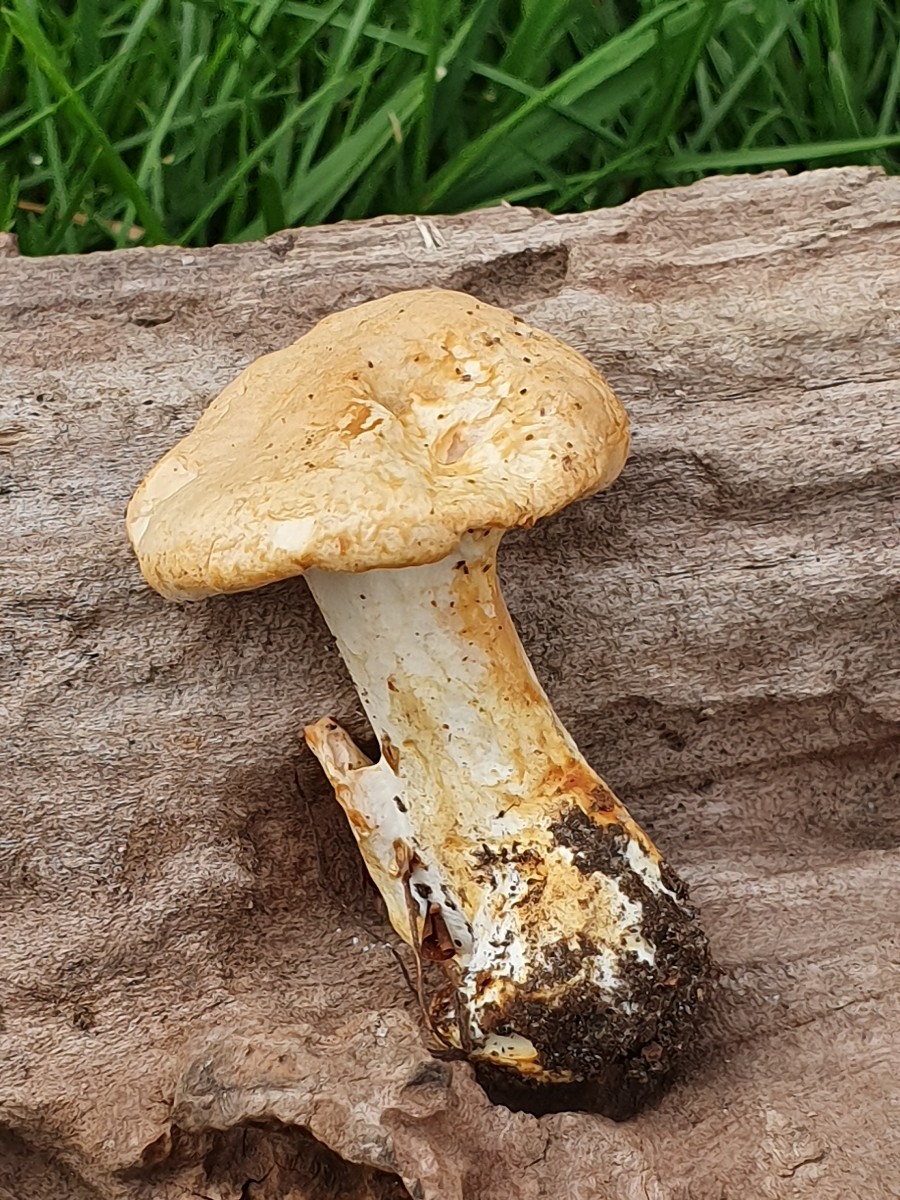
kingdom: Fungi
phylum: Basidiomycota
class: Agaricomycetes
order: Cantharellales
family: Hydnaceae
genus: Hydnum
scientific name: Hydnum
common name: pigsvamp
